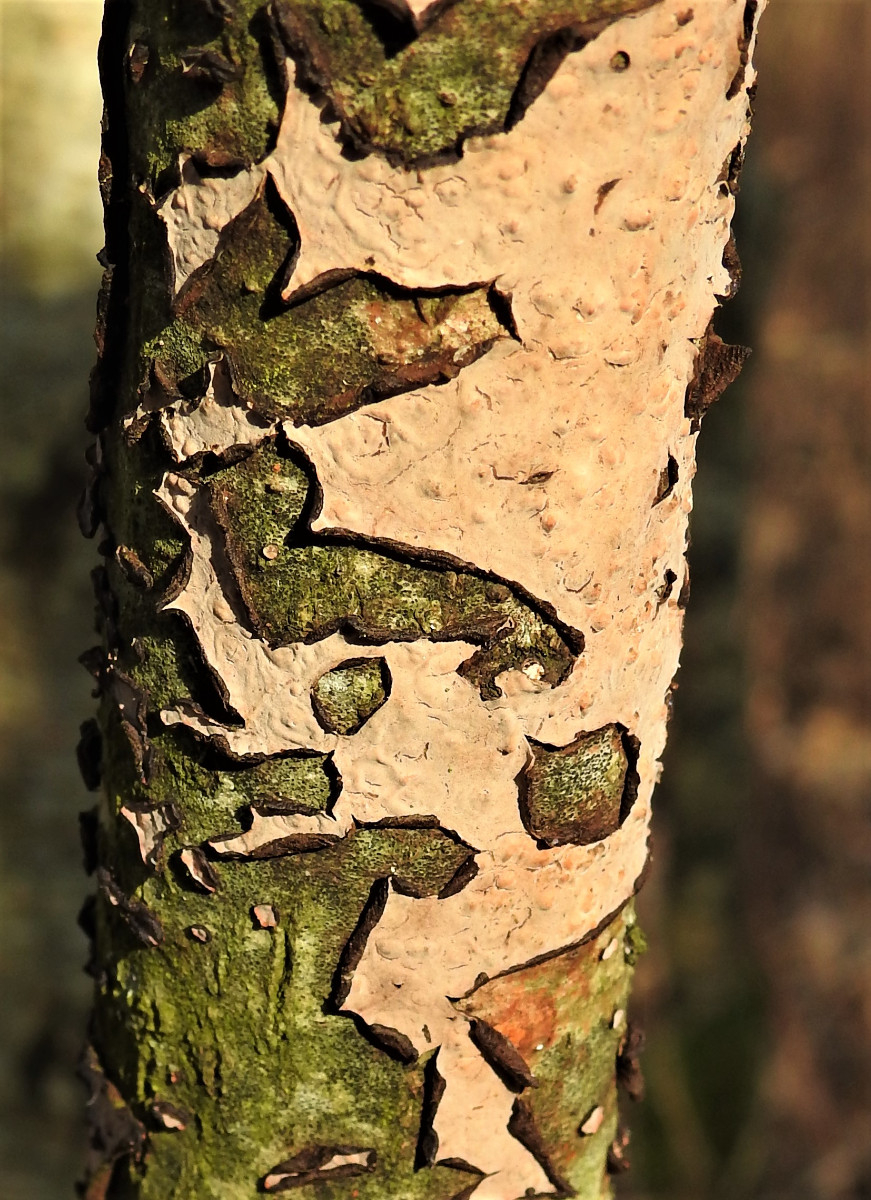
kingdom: Fungi
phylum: Basidiomycota
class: Agaricomycetes
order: Russulales
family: Peniophoraceae
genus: Peniophora
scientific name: Peniophora quercina
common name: ege-voksskind
